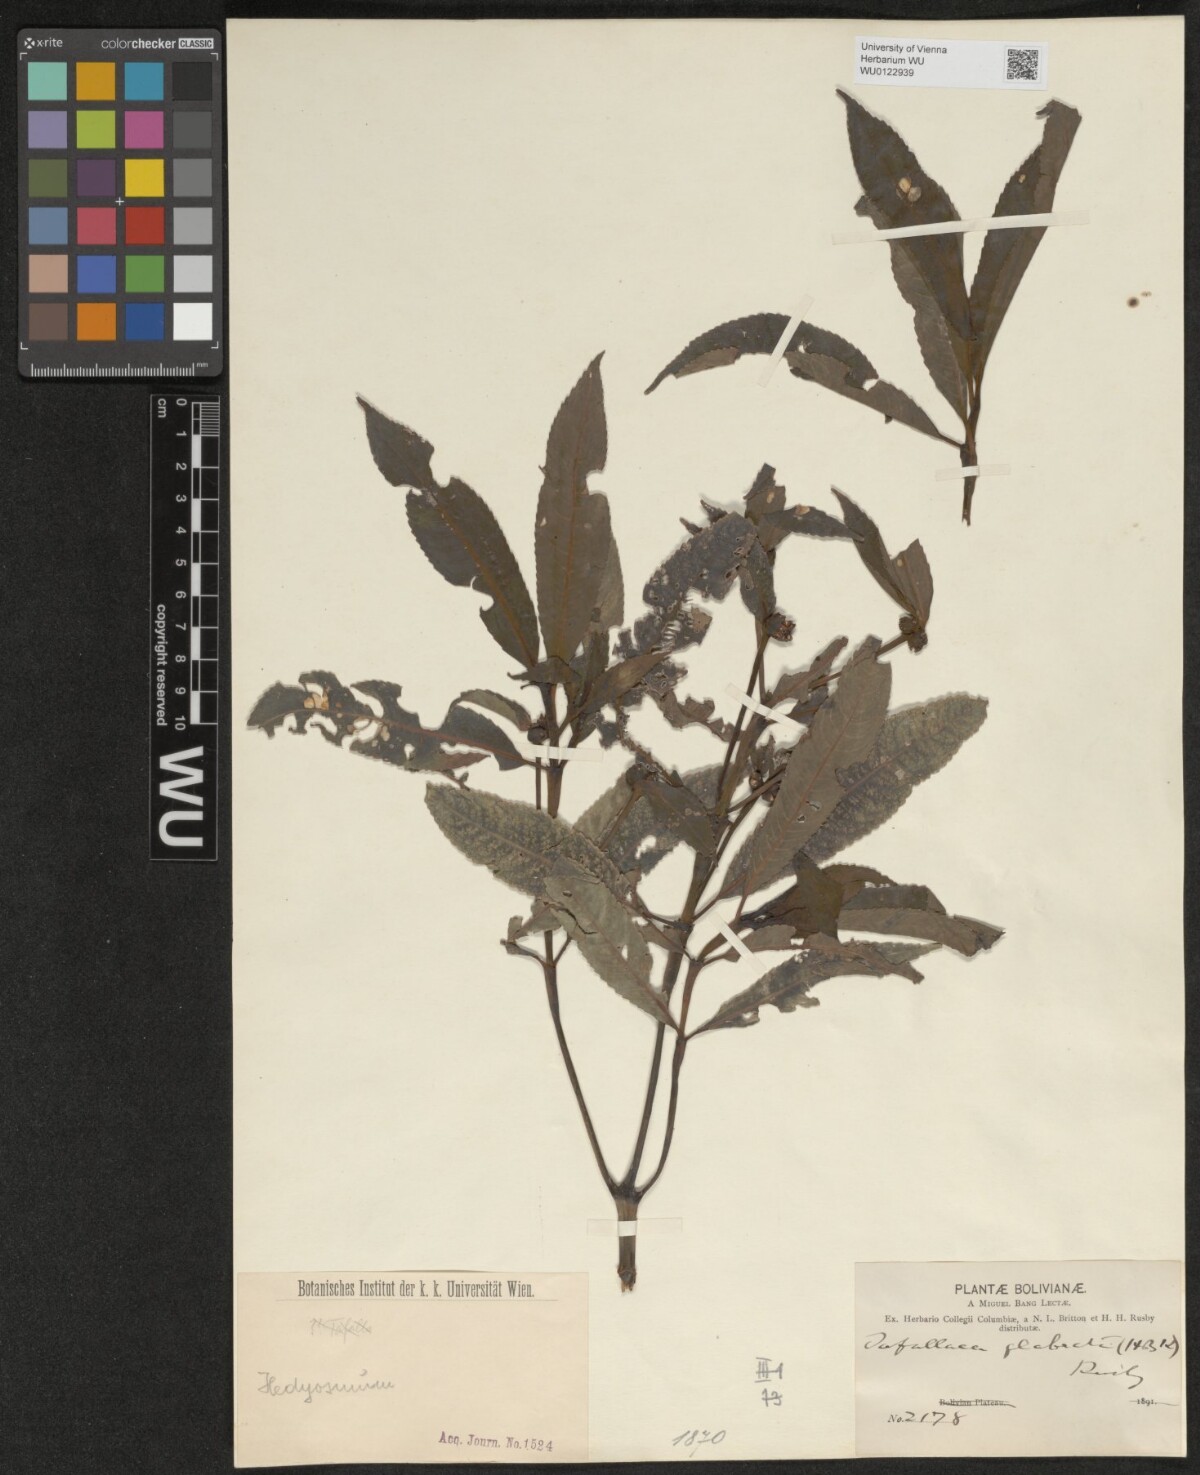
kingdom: Plantae
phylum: Tracheophyta
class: Magnoliopsida
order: Chloranthales
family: Chloranthaceae
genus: Hedyosmum
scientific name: Hedyosmum racemosum
